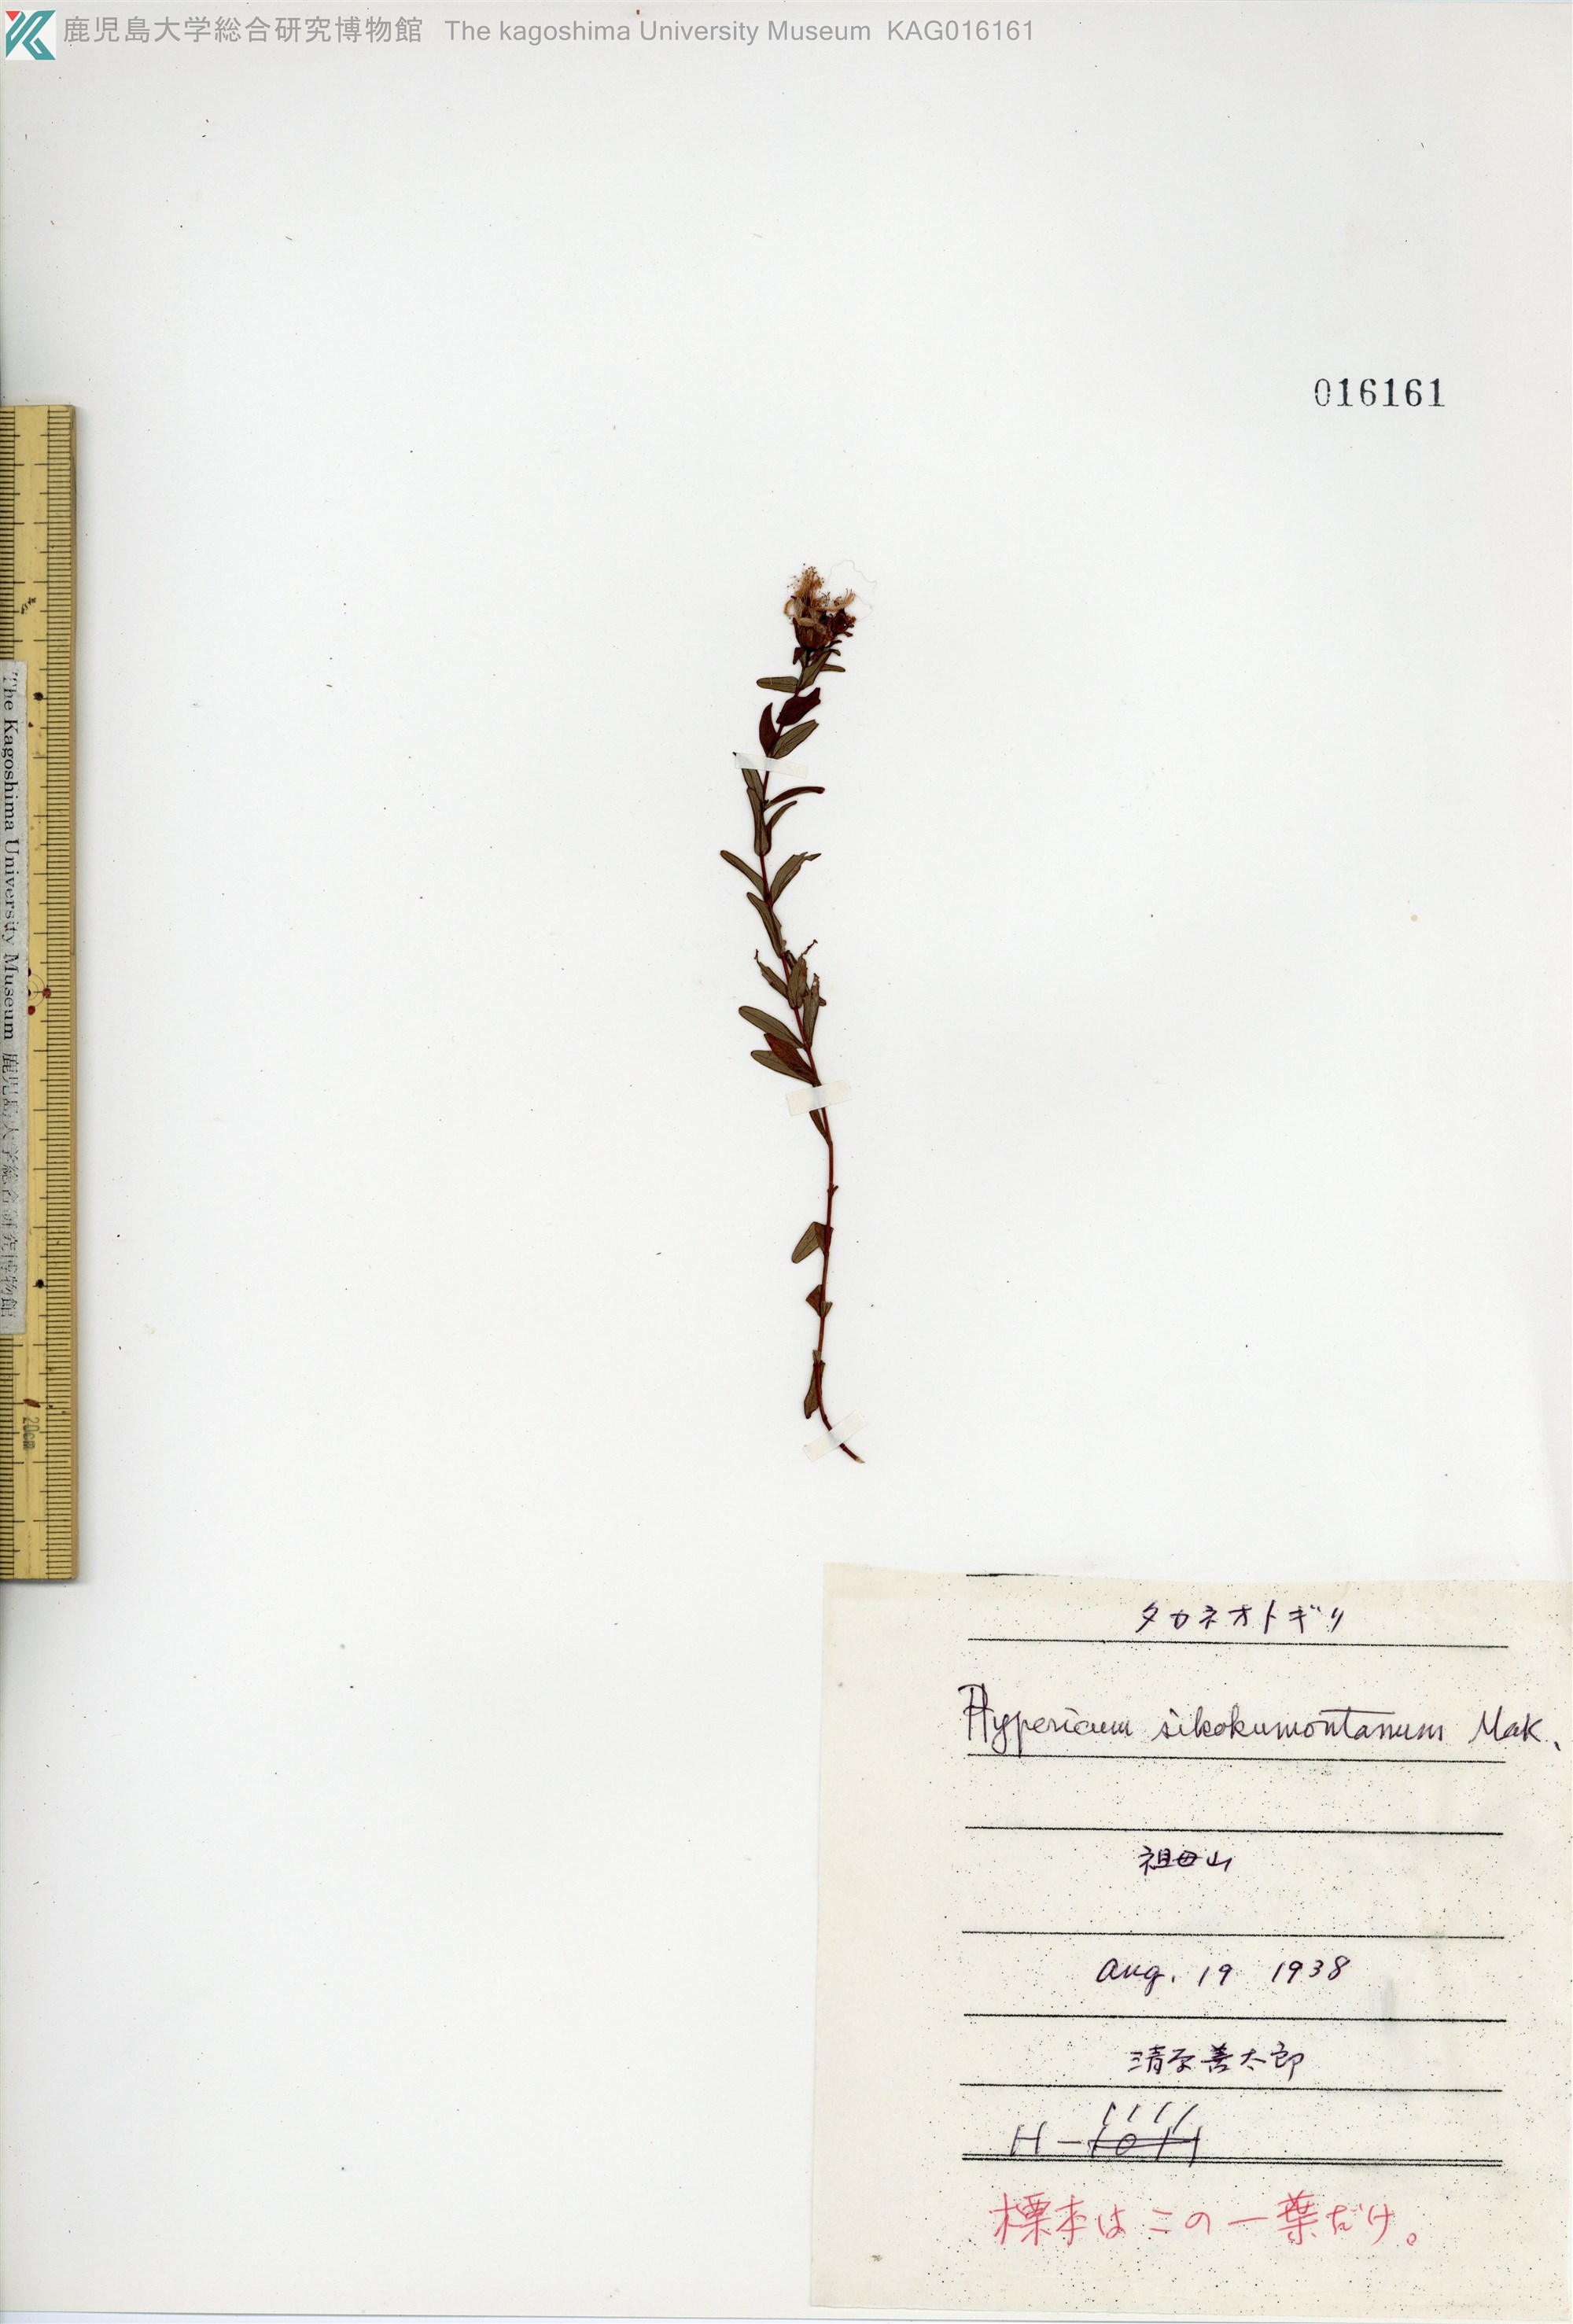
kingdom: Plantae
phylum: Tracheophyta
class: Magnoliopsida
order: Malpighiales
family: Hypericaceae
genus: Hypericum
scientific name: Hypericum sikokumontanum
